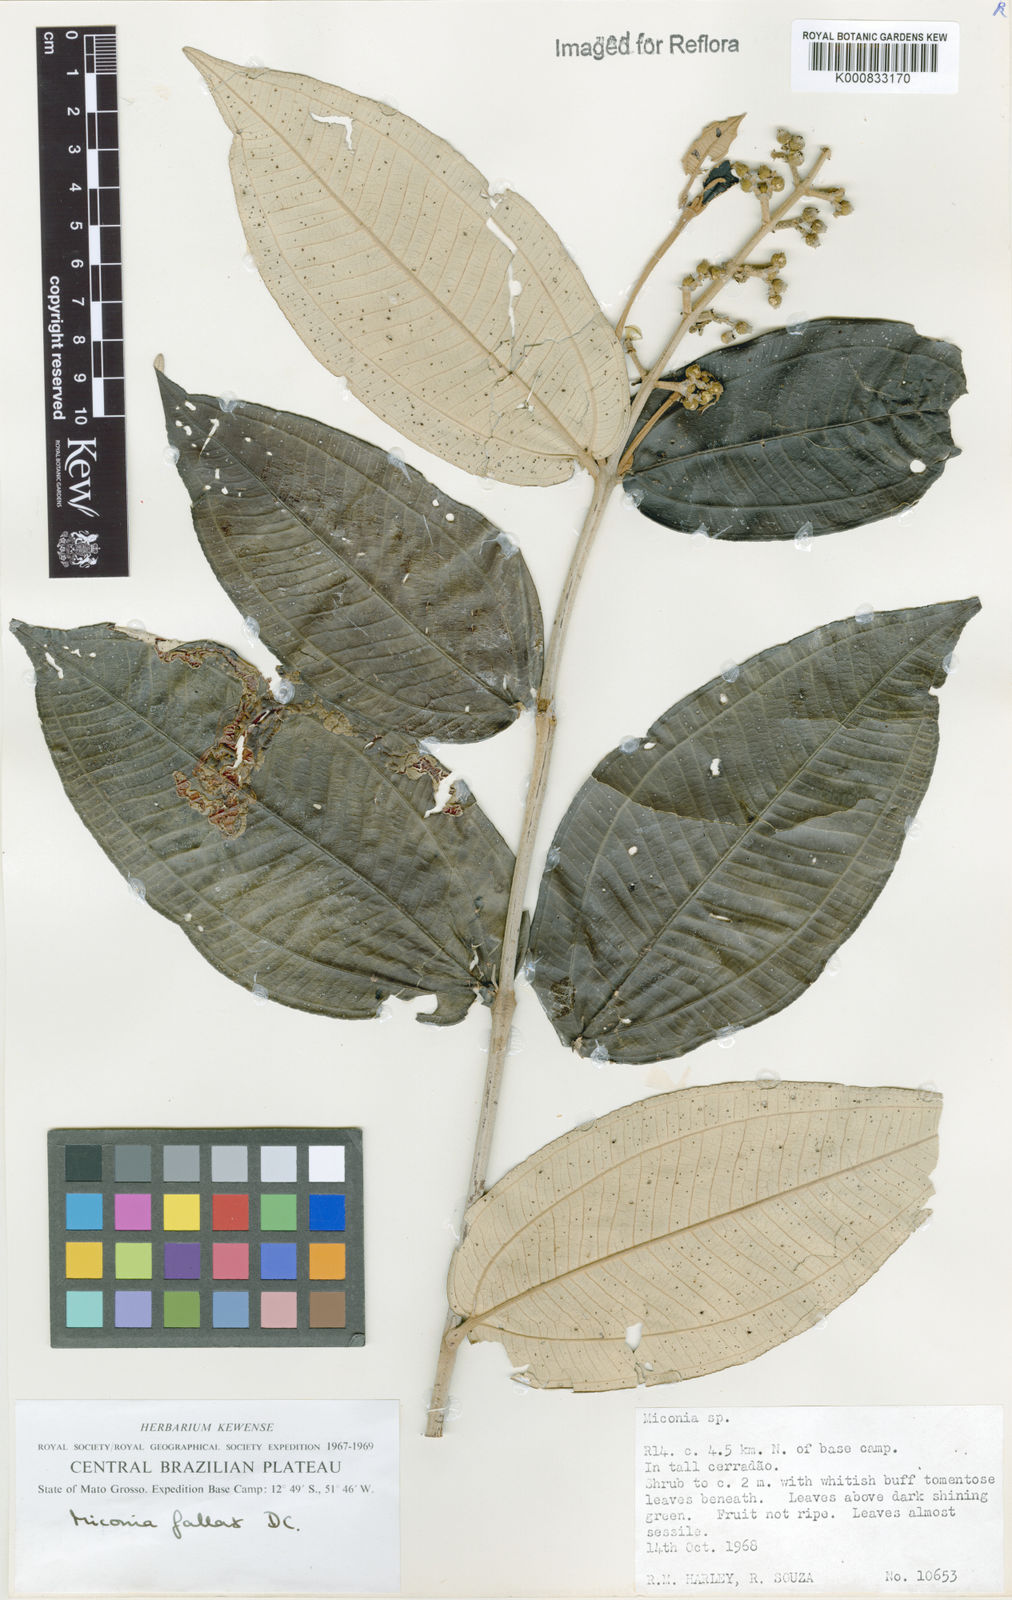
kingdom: Plantae
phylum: Tracheophyta
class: Magnoliopsida
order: Myrtales
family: Melastomataceae
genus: Miconia
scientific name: Miconia fallax
